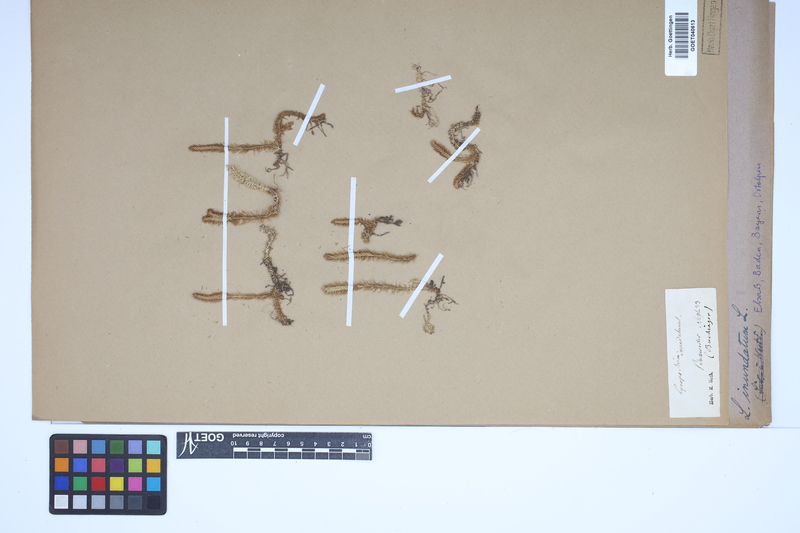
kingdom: Plantae
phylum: Tracheophyta
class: Lycopodiopsida
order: Lycopodiales
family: Lycopodiaceae
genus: Lycopodiella
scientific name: Lycopodiella inundata
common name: Marsh clubmoss
